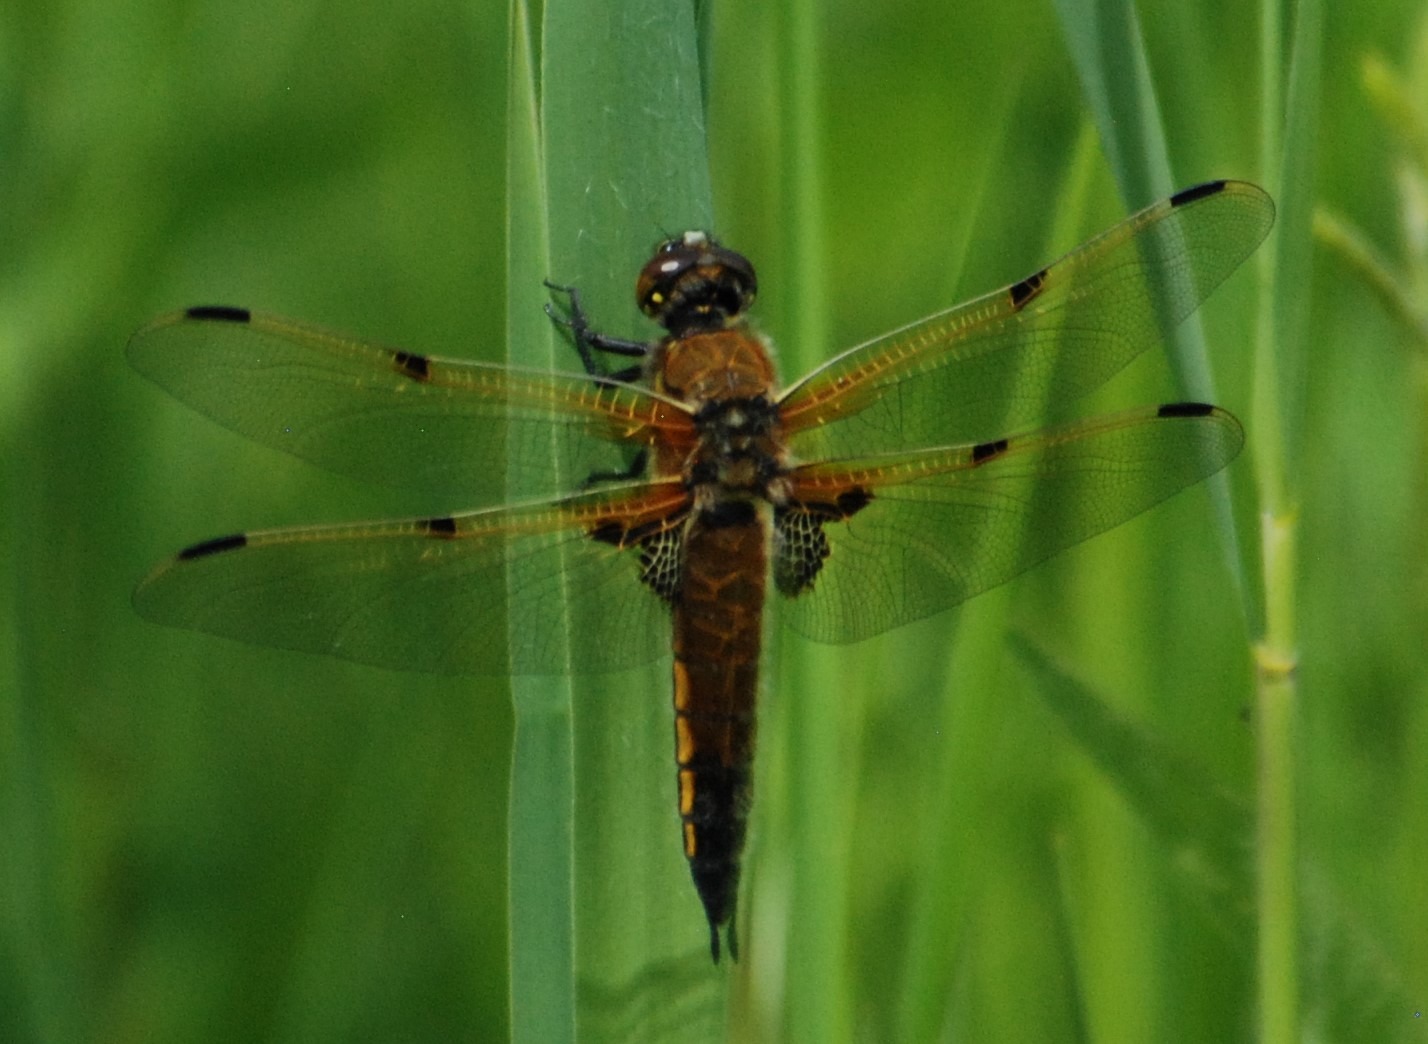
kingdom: Animalia
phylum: Arthropoda
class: Insecta
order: Odonata
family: Libellulidae
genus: Libellula
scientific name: Libellula quadrimaculata
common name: Fireplettet libel
